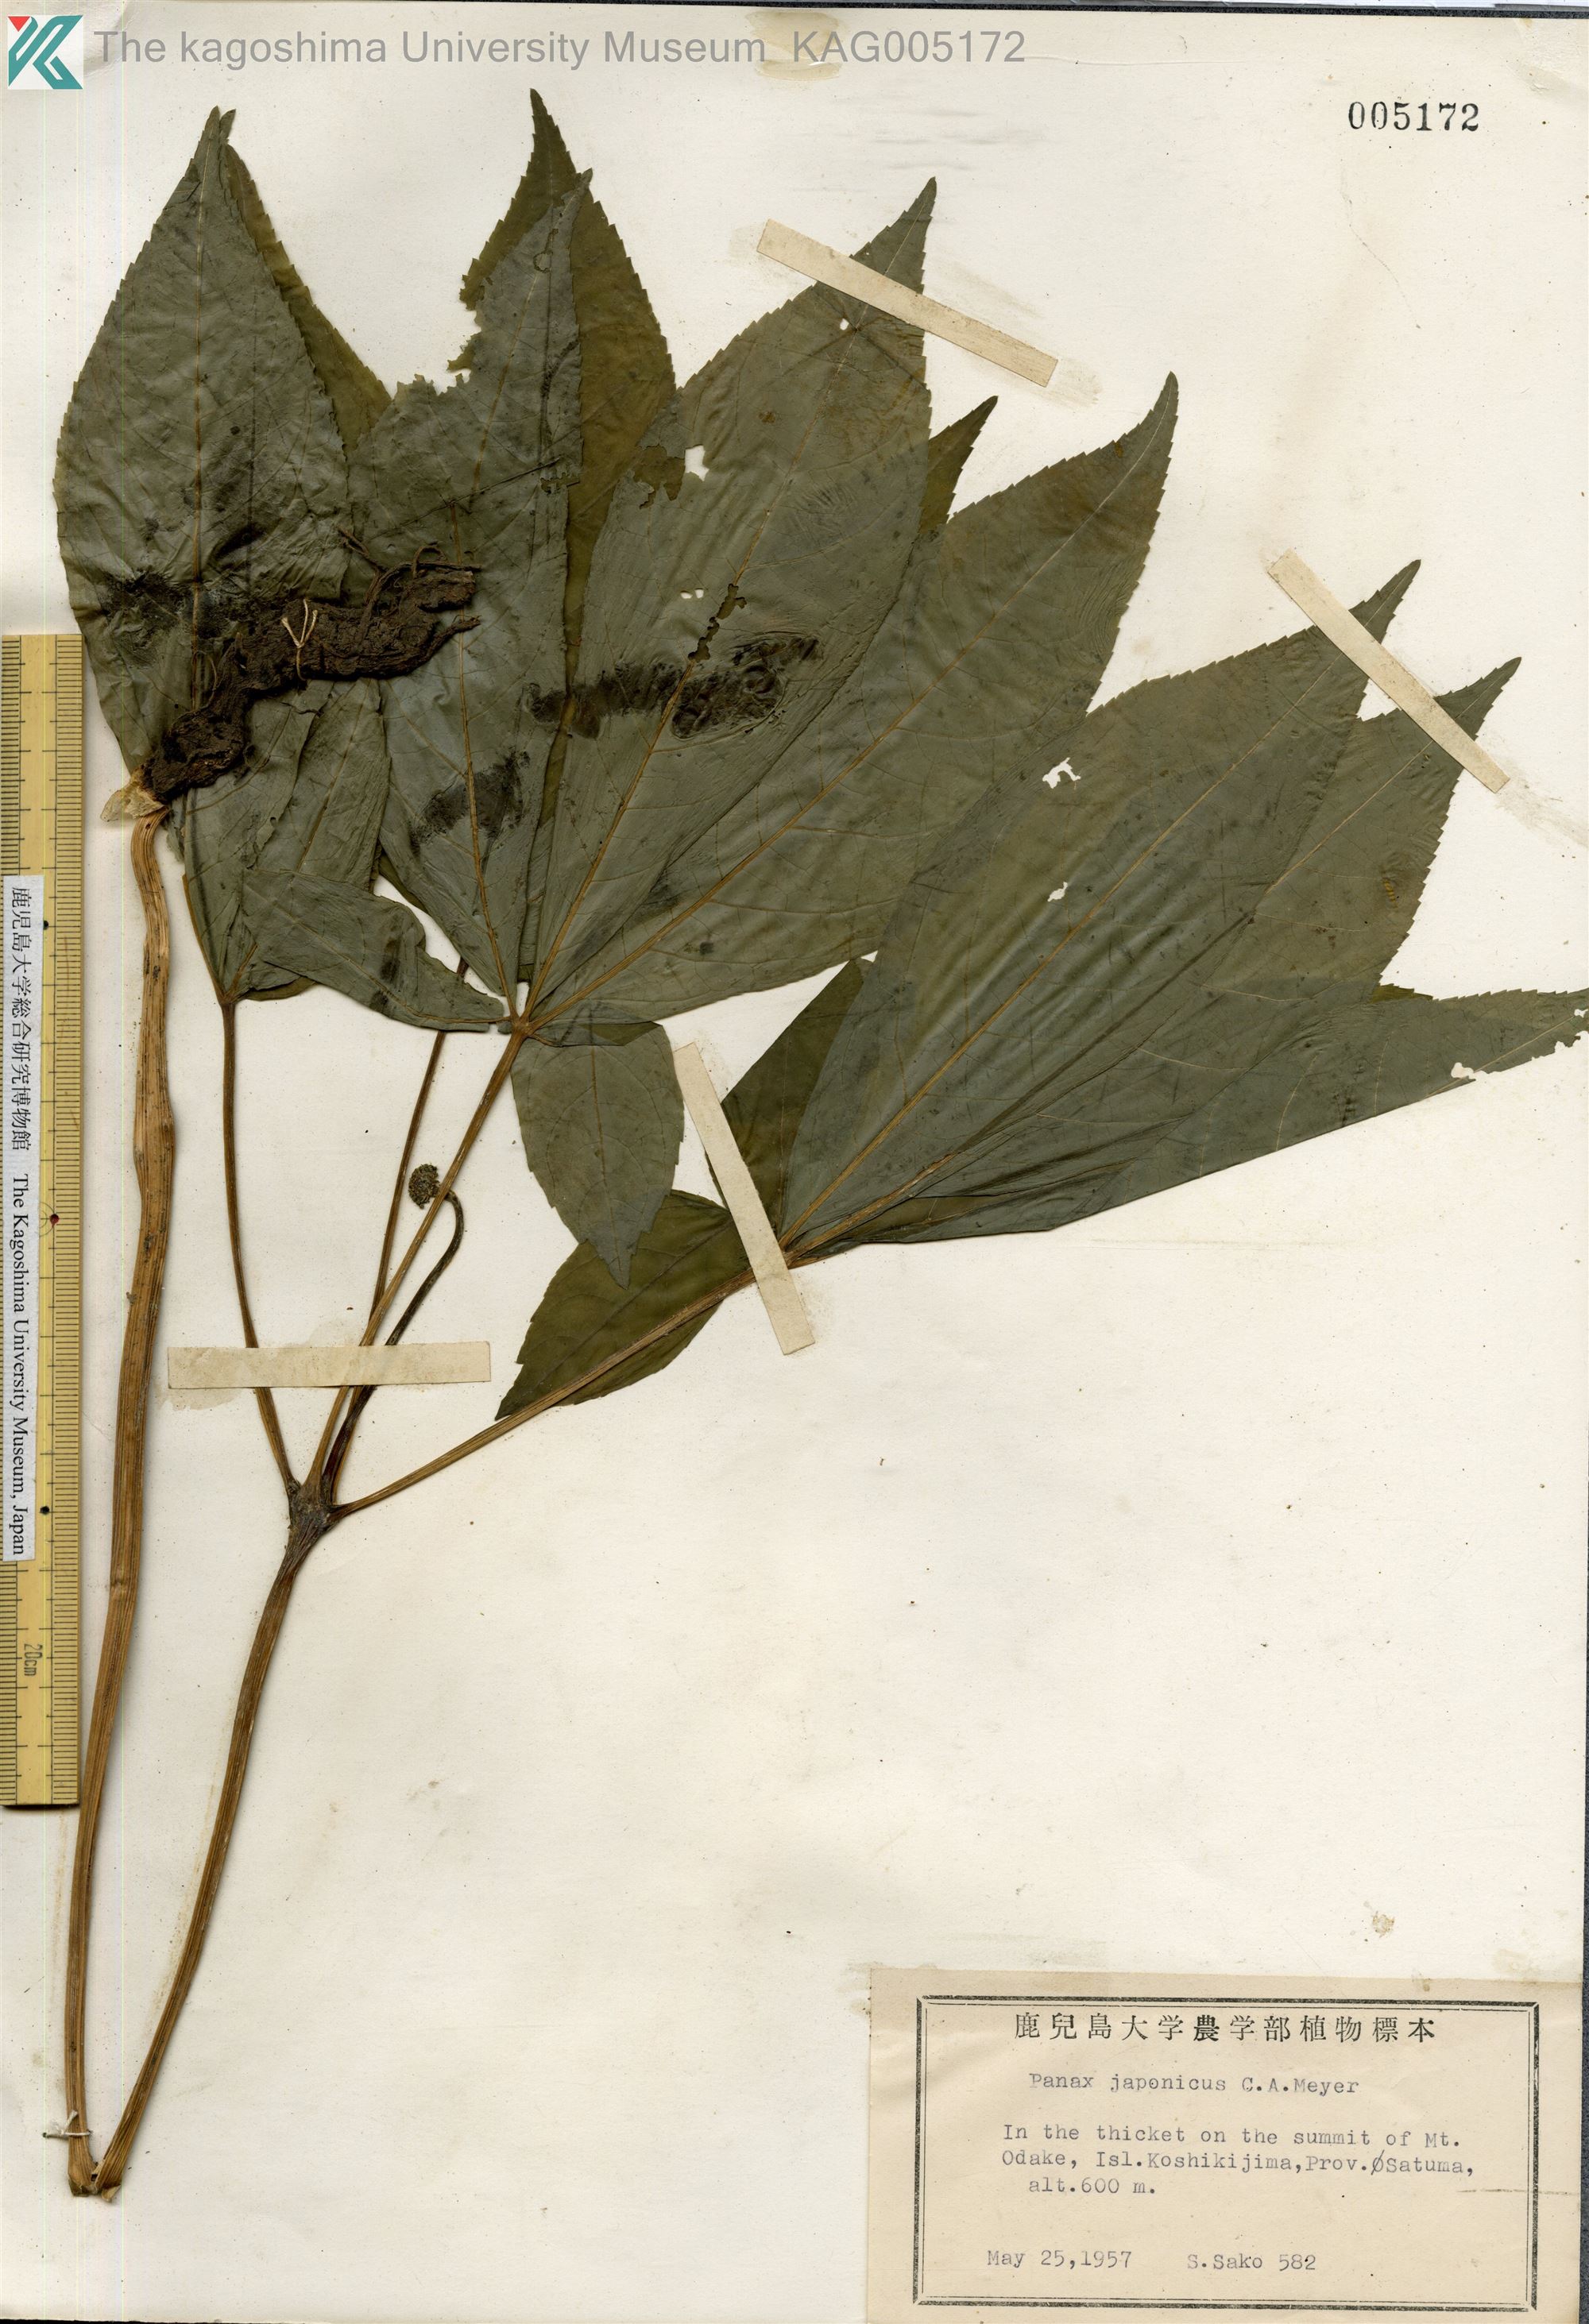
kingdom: Plantae
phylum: Tracheophyta
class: Magnoliopsida
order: Apiales
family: Araliaceae
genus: Panax
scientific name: Panax japonicus
